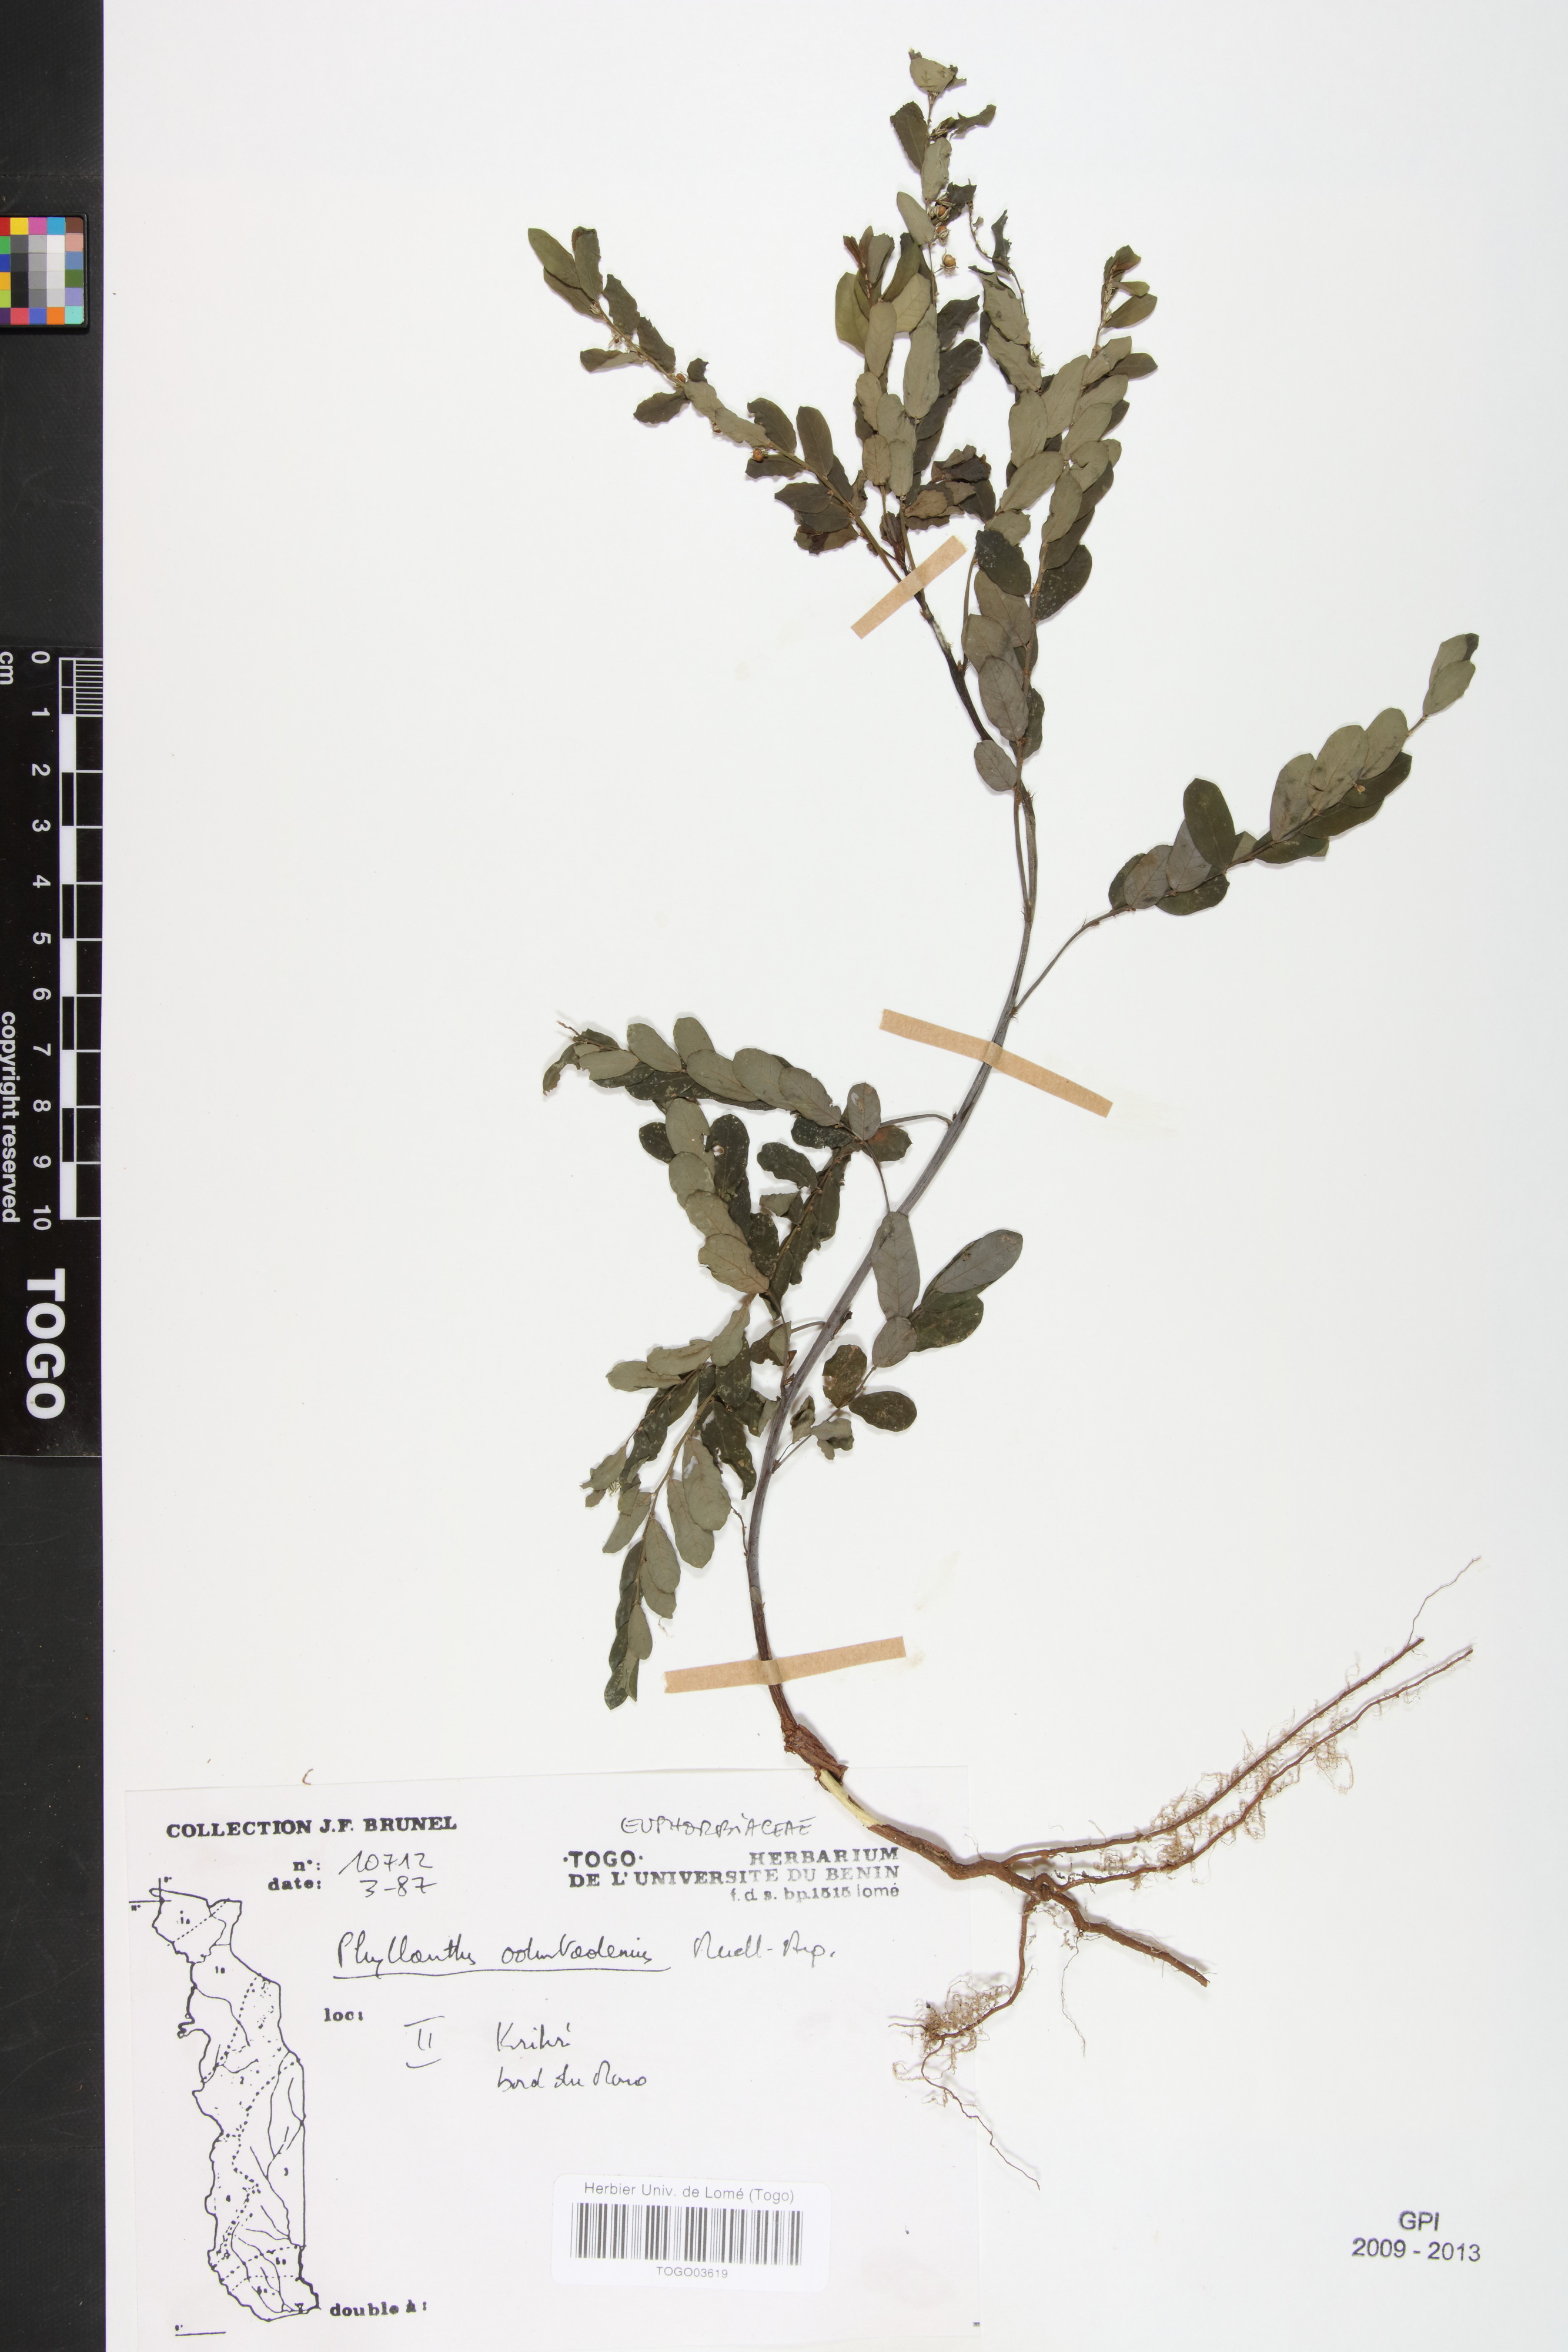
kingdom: Plantae
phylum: Tracheophyta
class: Magnoliopsida
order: Malpighiales
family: Phyllanthaceae
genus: Phyllanthus
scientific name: Phyllanthus odontadenius
